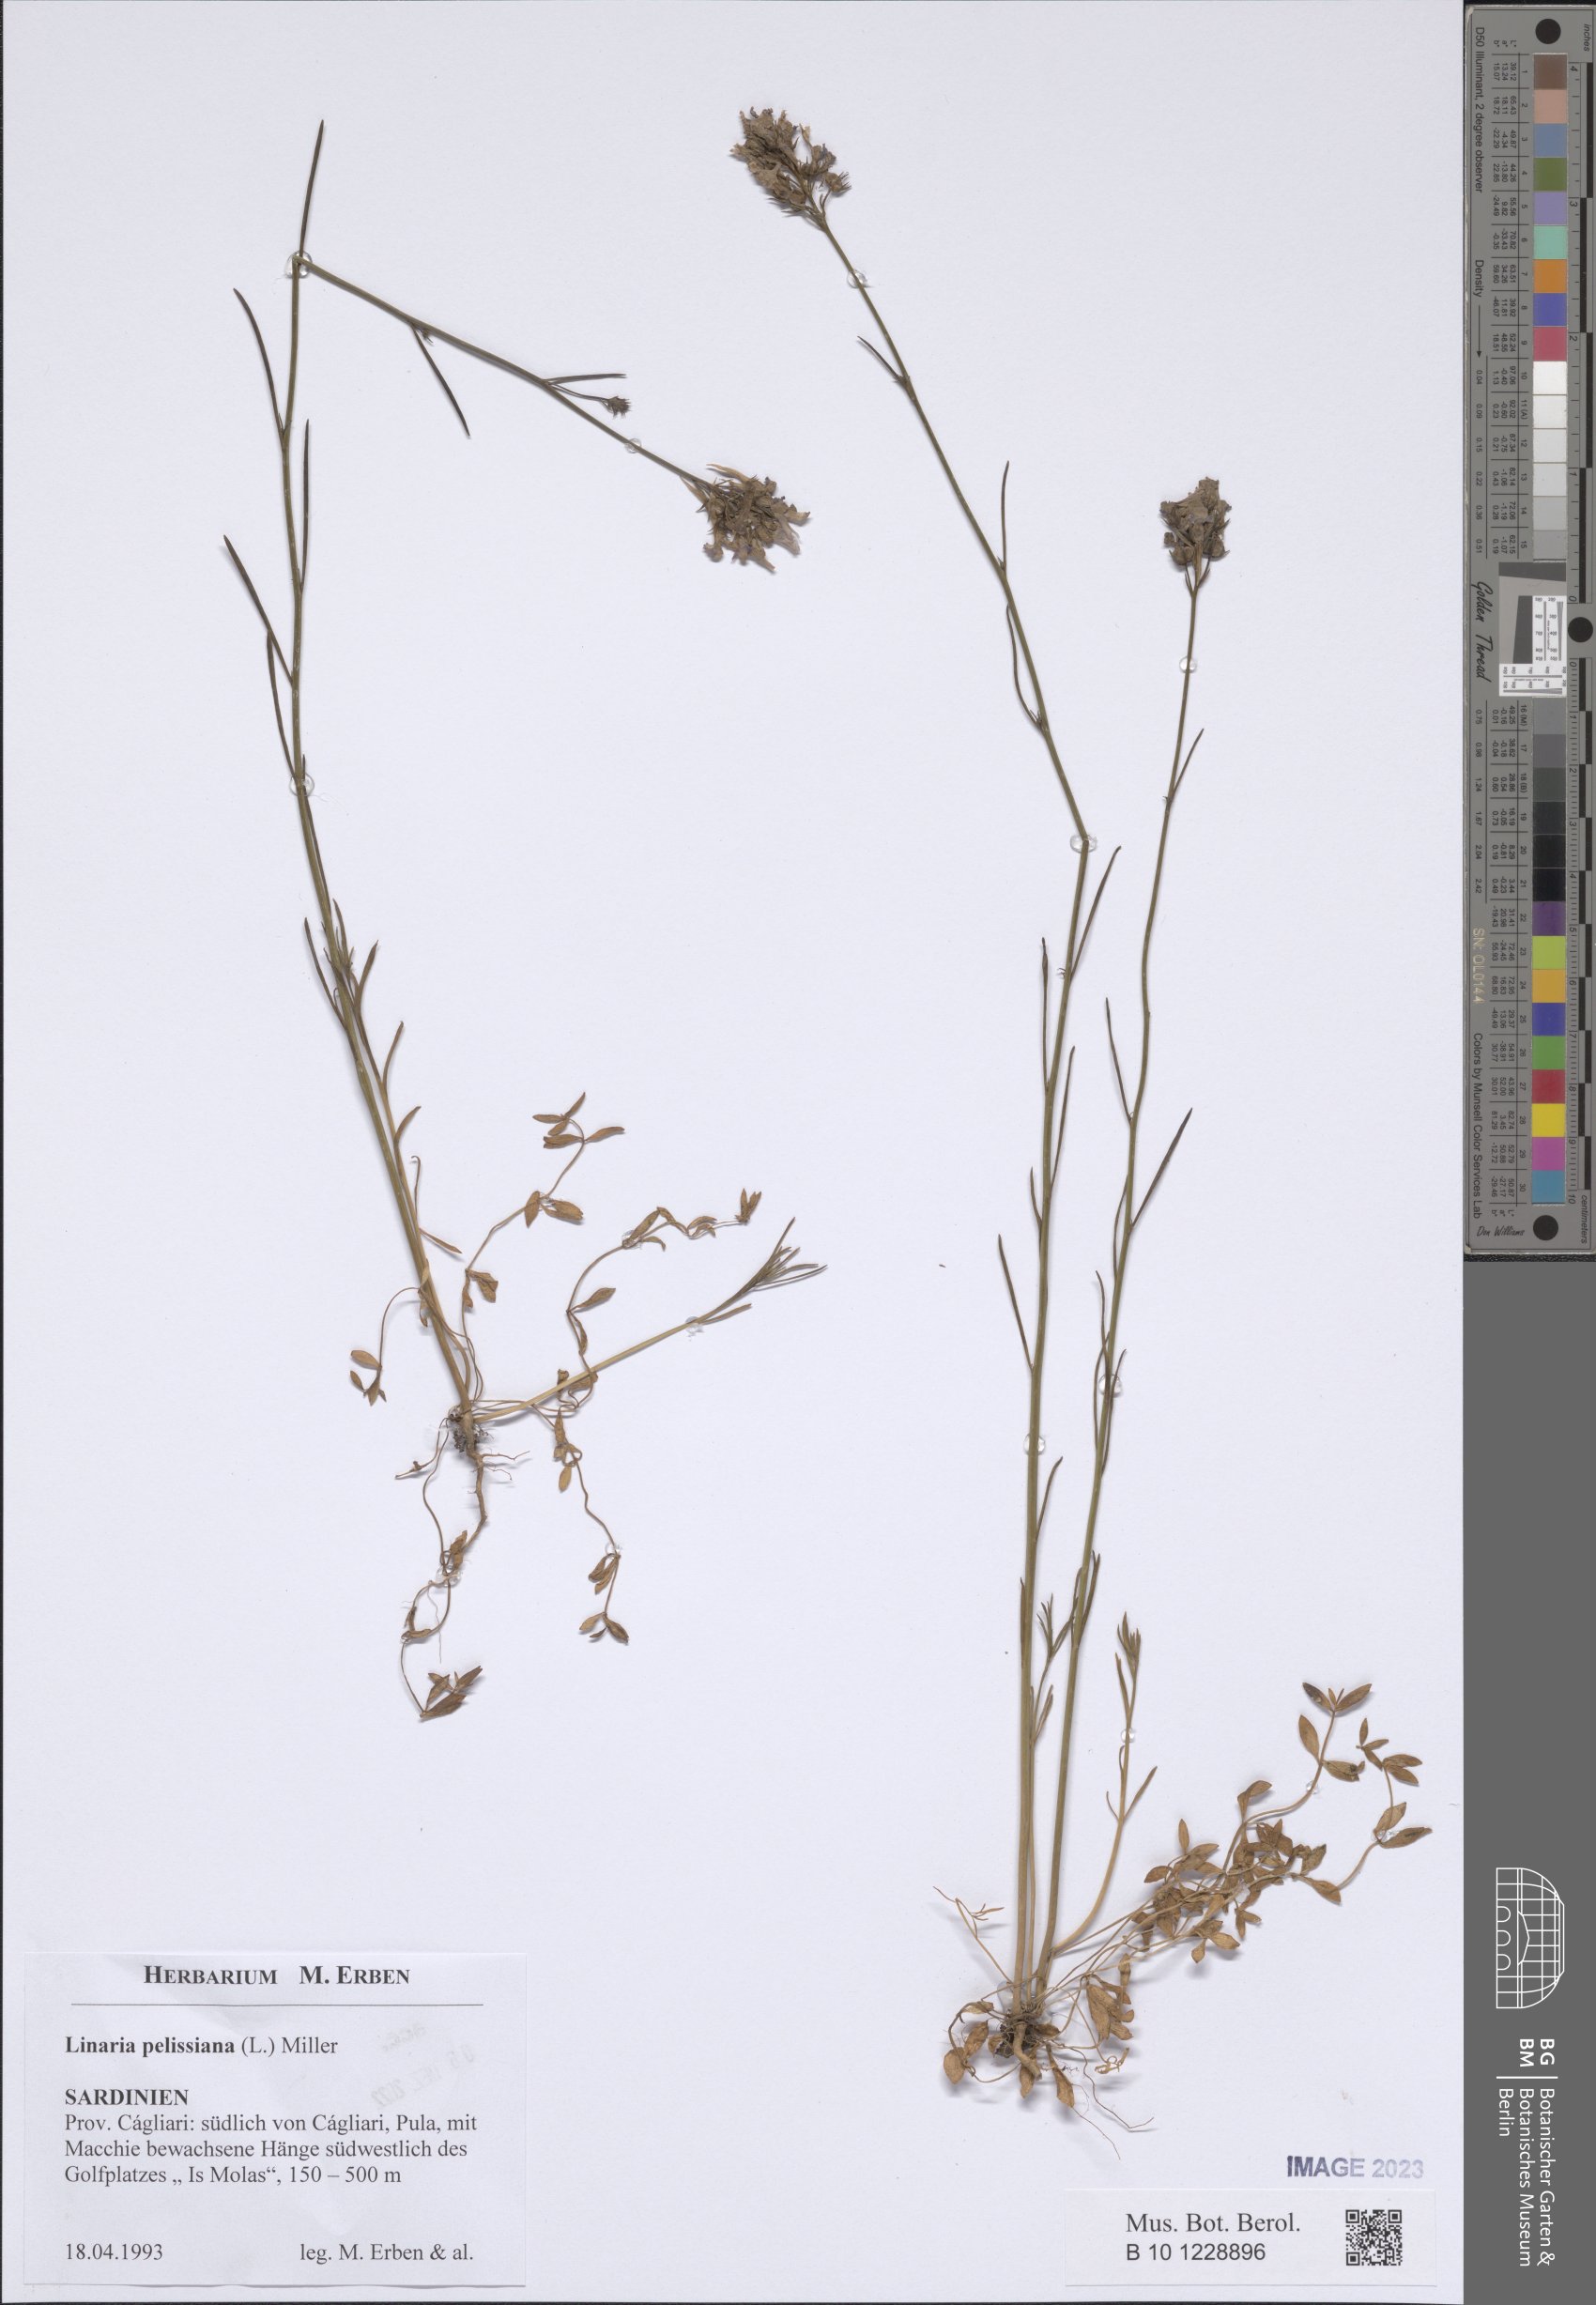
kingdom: Plantae
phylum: Tracheophyta
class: Magnoliopsida
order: Lamiales
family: Plantaginaceae
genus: Linaria
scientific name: Linaria pelisseriana
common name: Jersey toadflax
